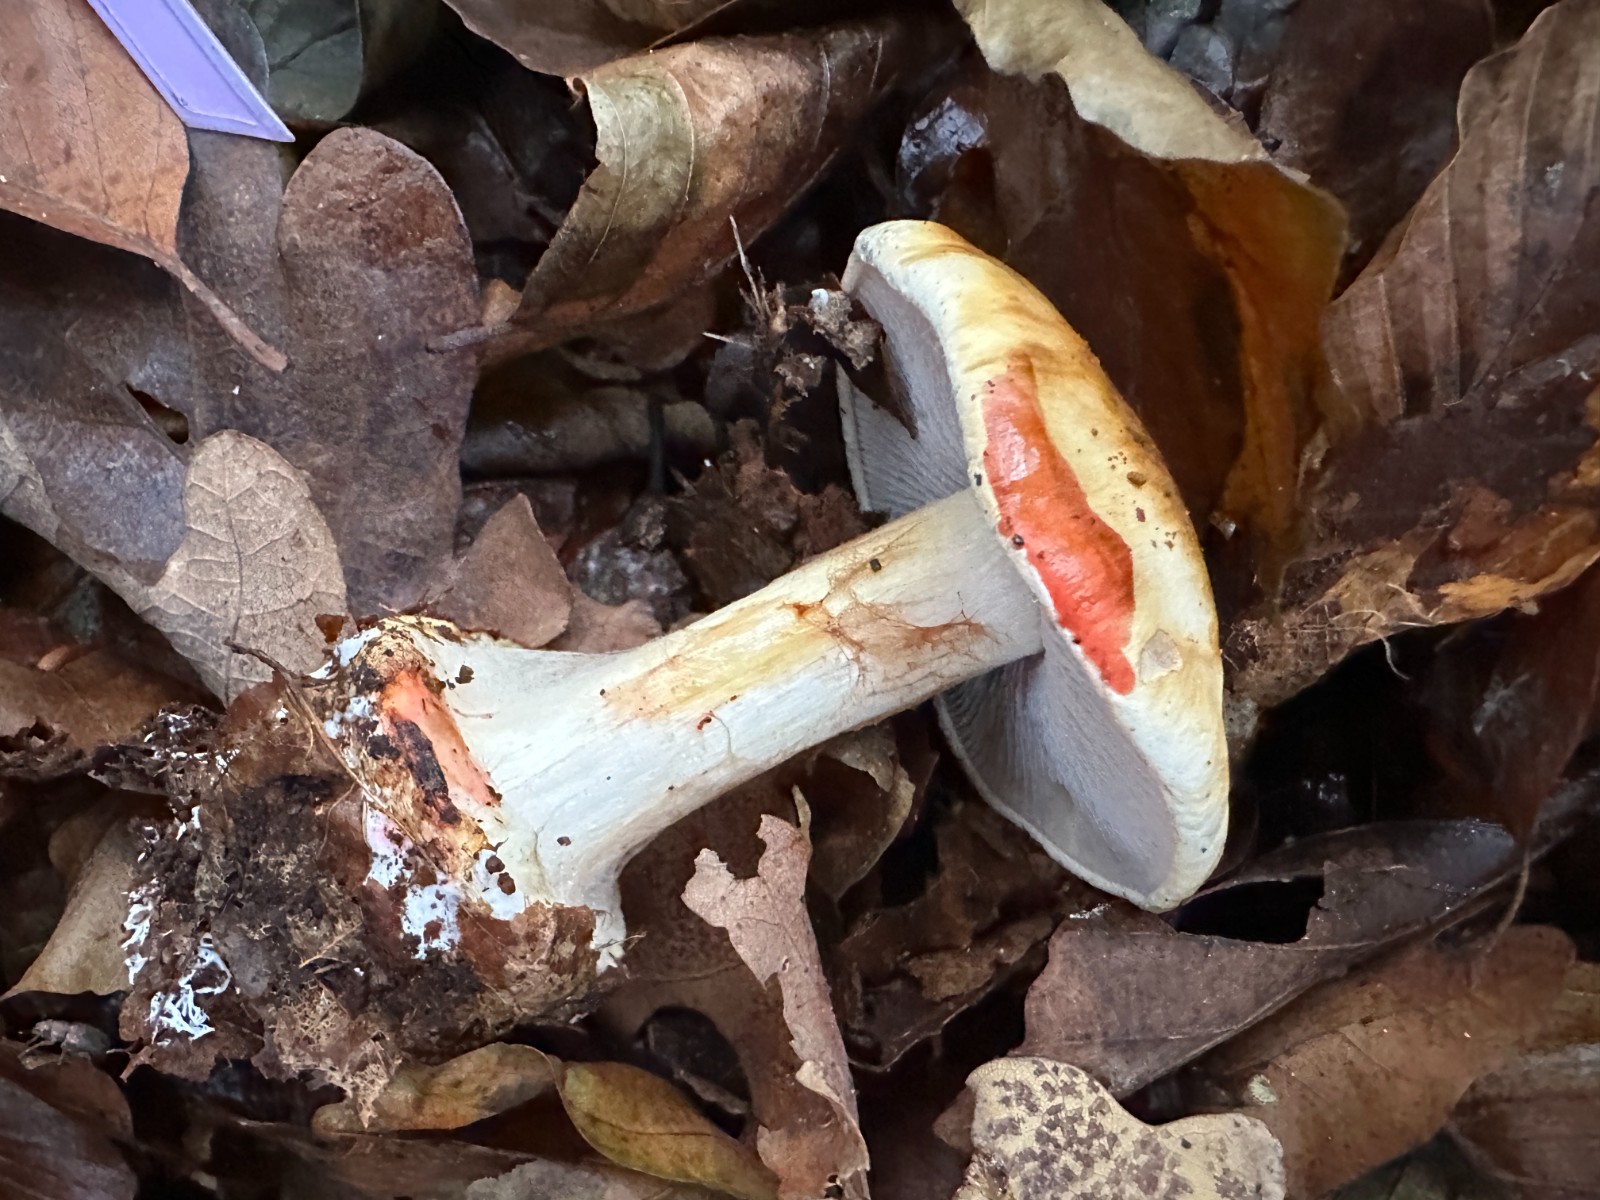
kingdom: Fungi
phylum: Basidiomycota
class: Agaricomycetes
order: Agaricales
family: Cortinariaceae
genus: Calonarius
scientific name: Calonarius albertii
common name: Alberts slørhat
